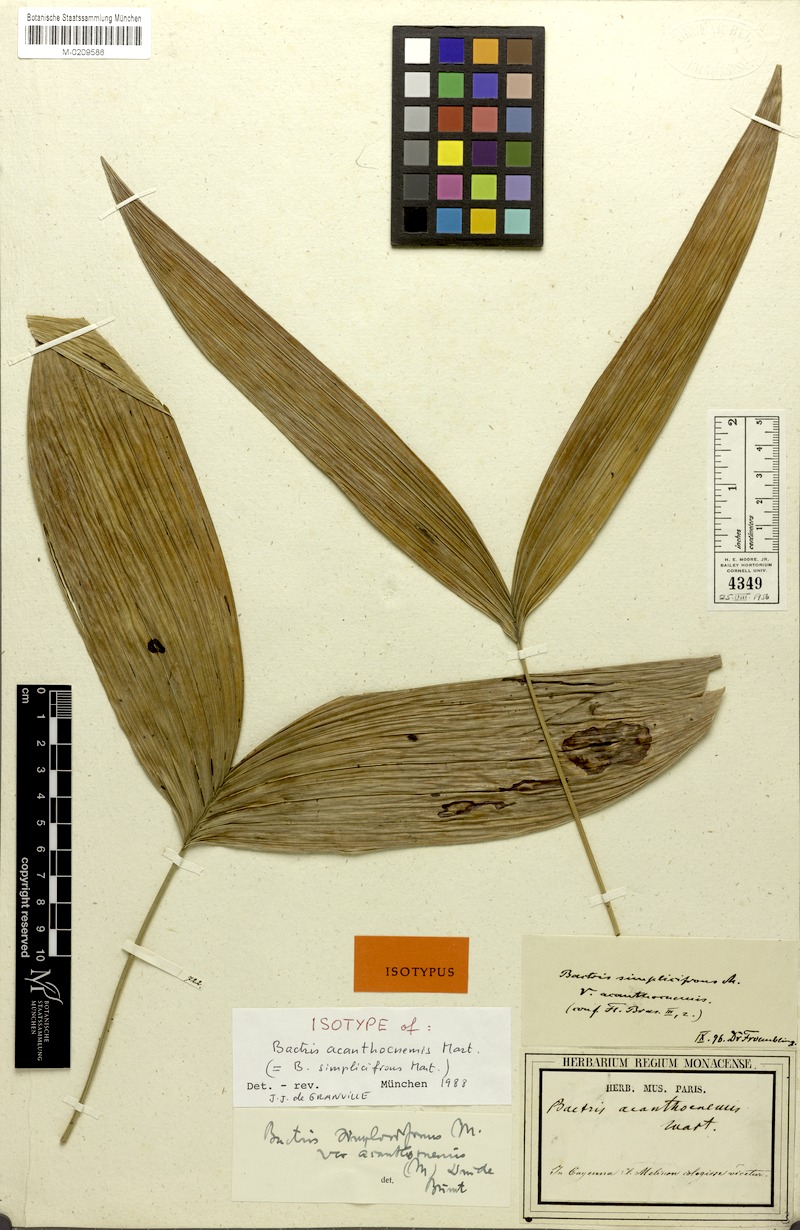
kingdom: Plantae
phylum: Tracheophyta
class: Liliopsida
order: Arecales
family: Arecaceae
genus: Bactris
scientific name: Bactris simplicifrons
